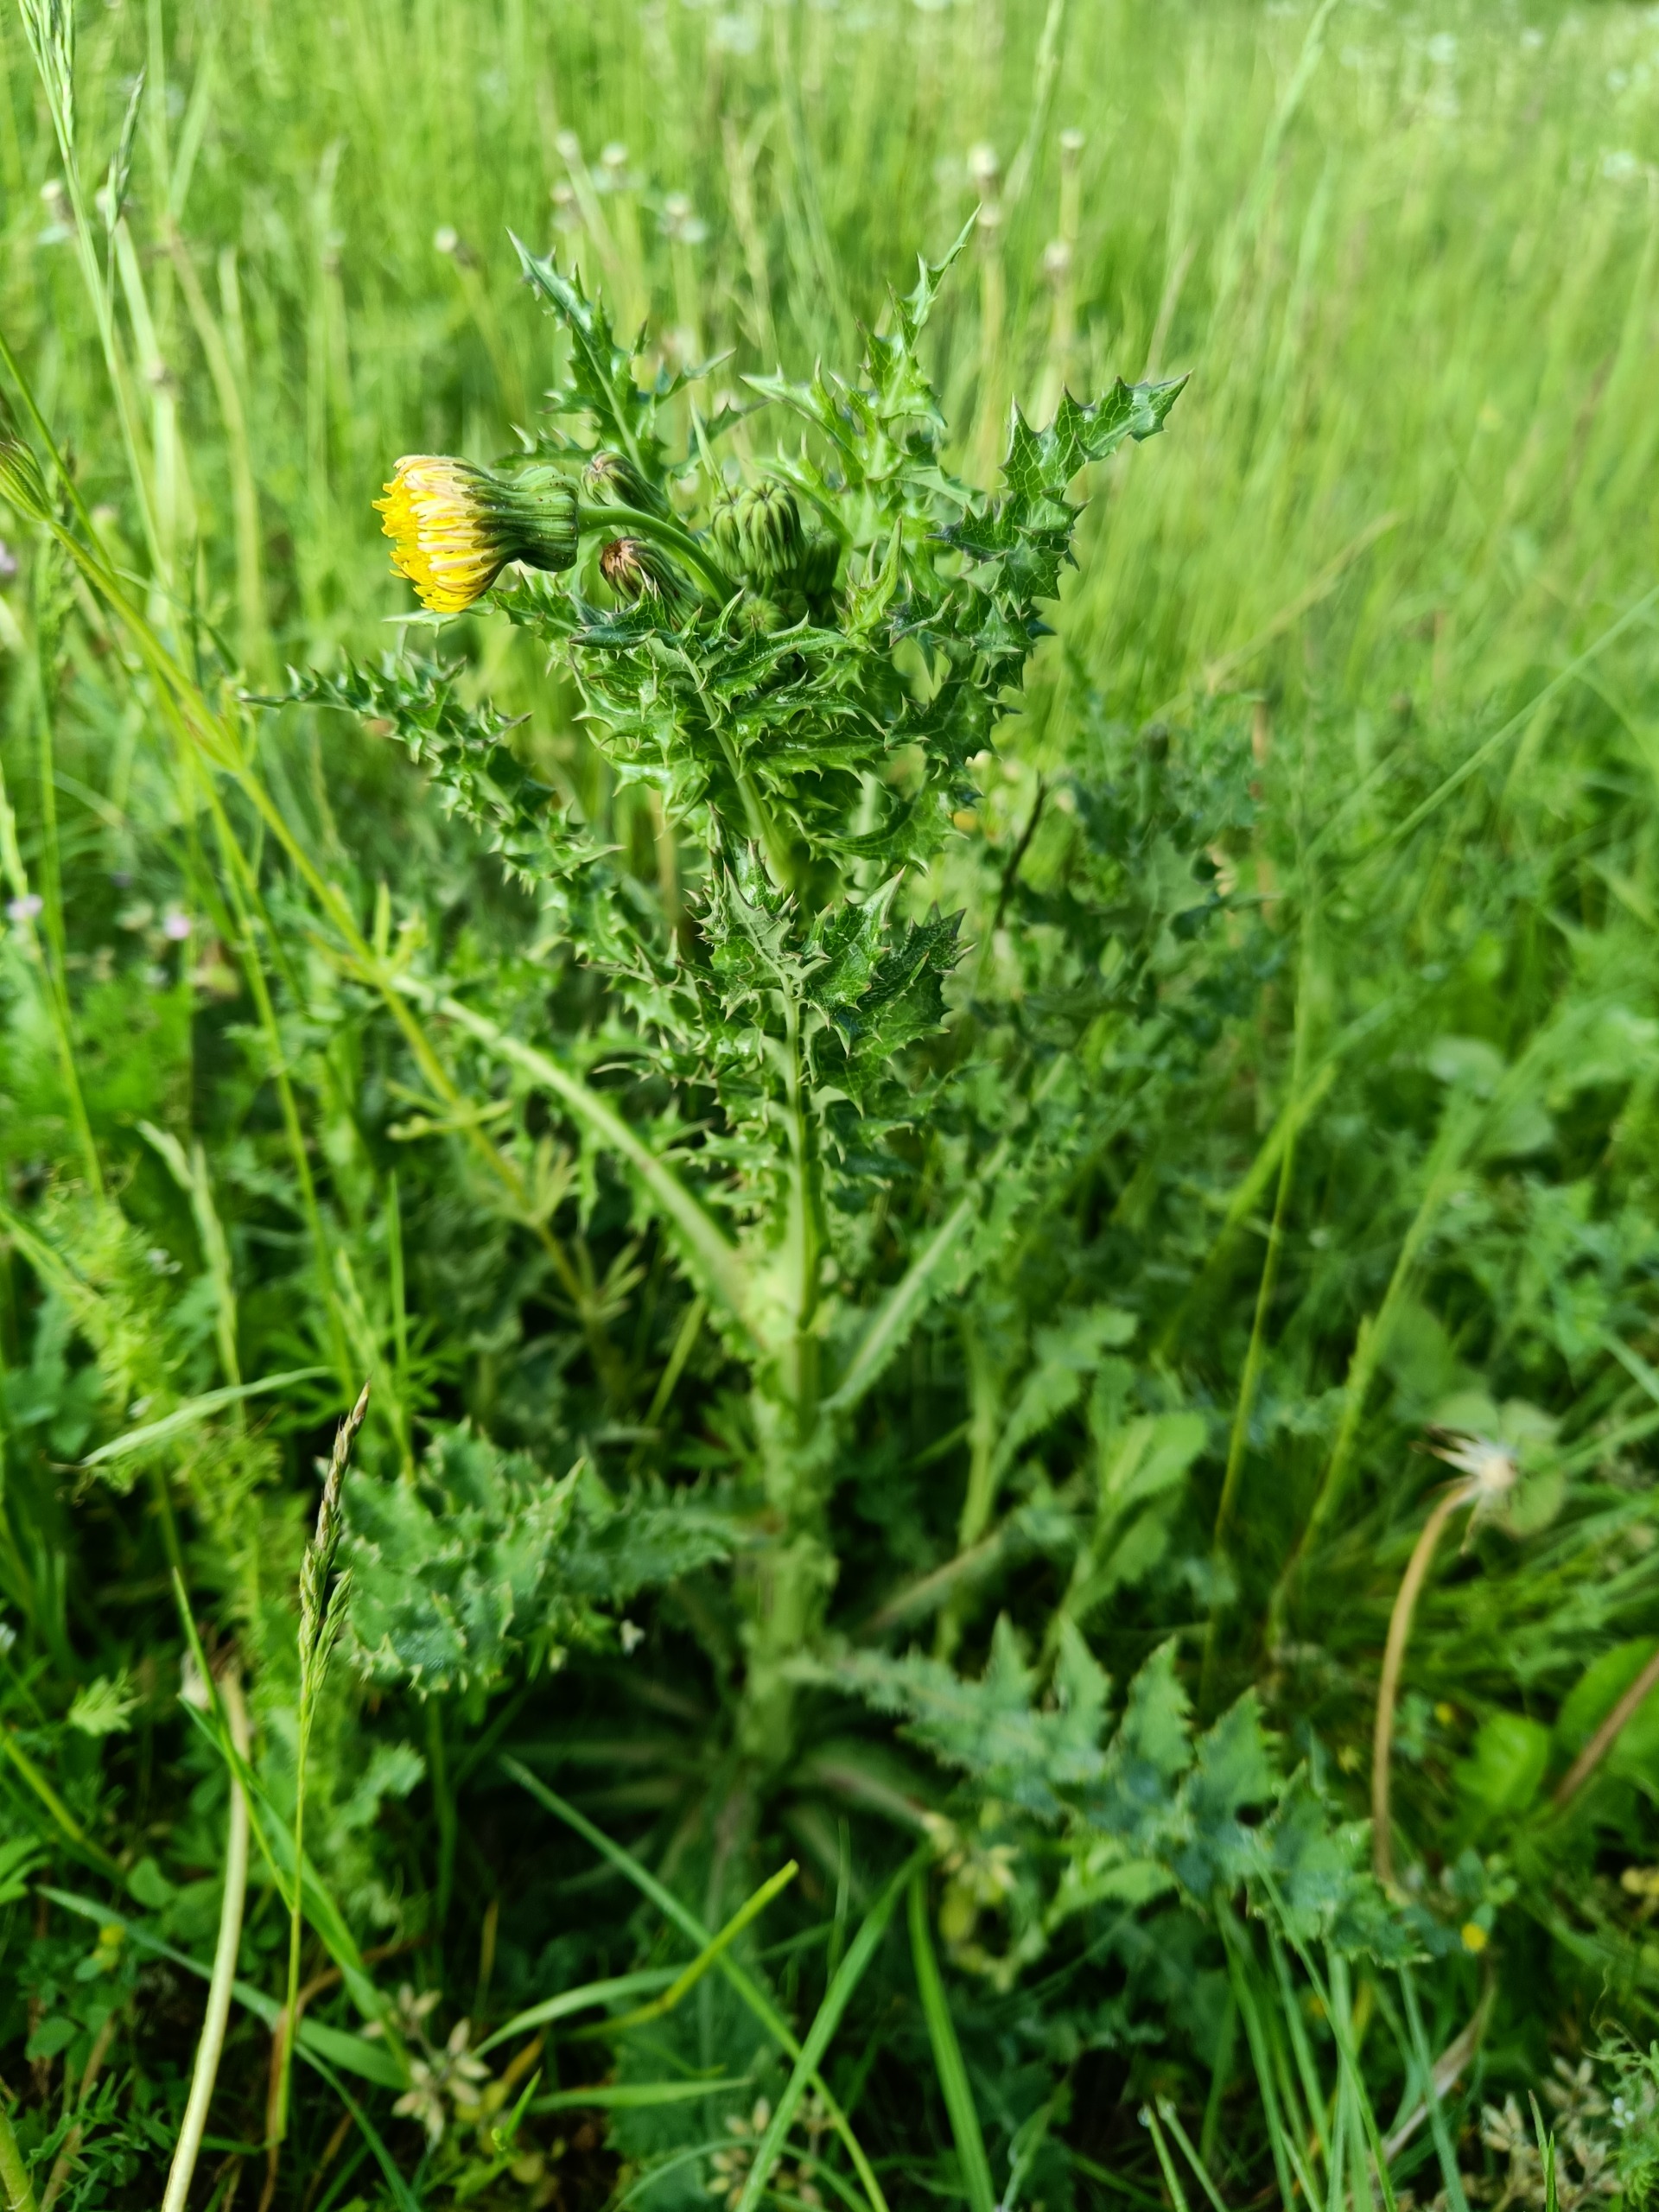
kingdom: Plantae
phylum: Tracheophyta
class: Magnoliopsida
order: Asterales
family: Asteraceae
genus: Sonchus
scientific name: Sonchus asper
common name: Ru svinemælk
